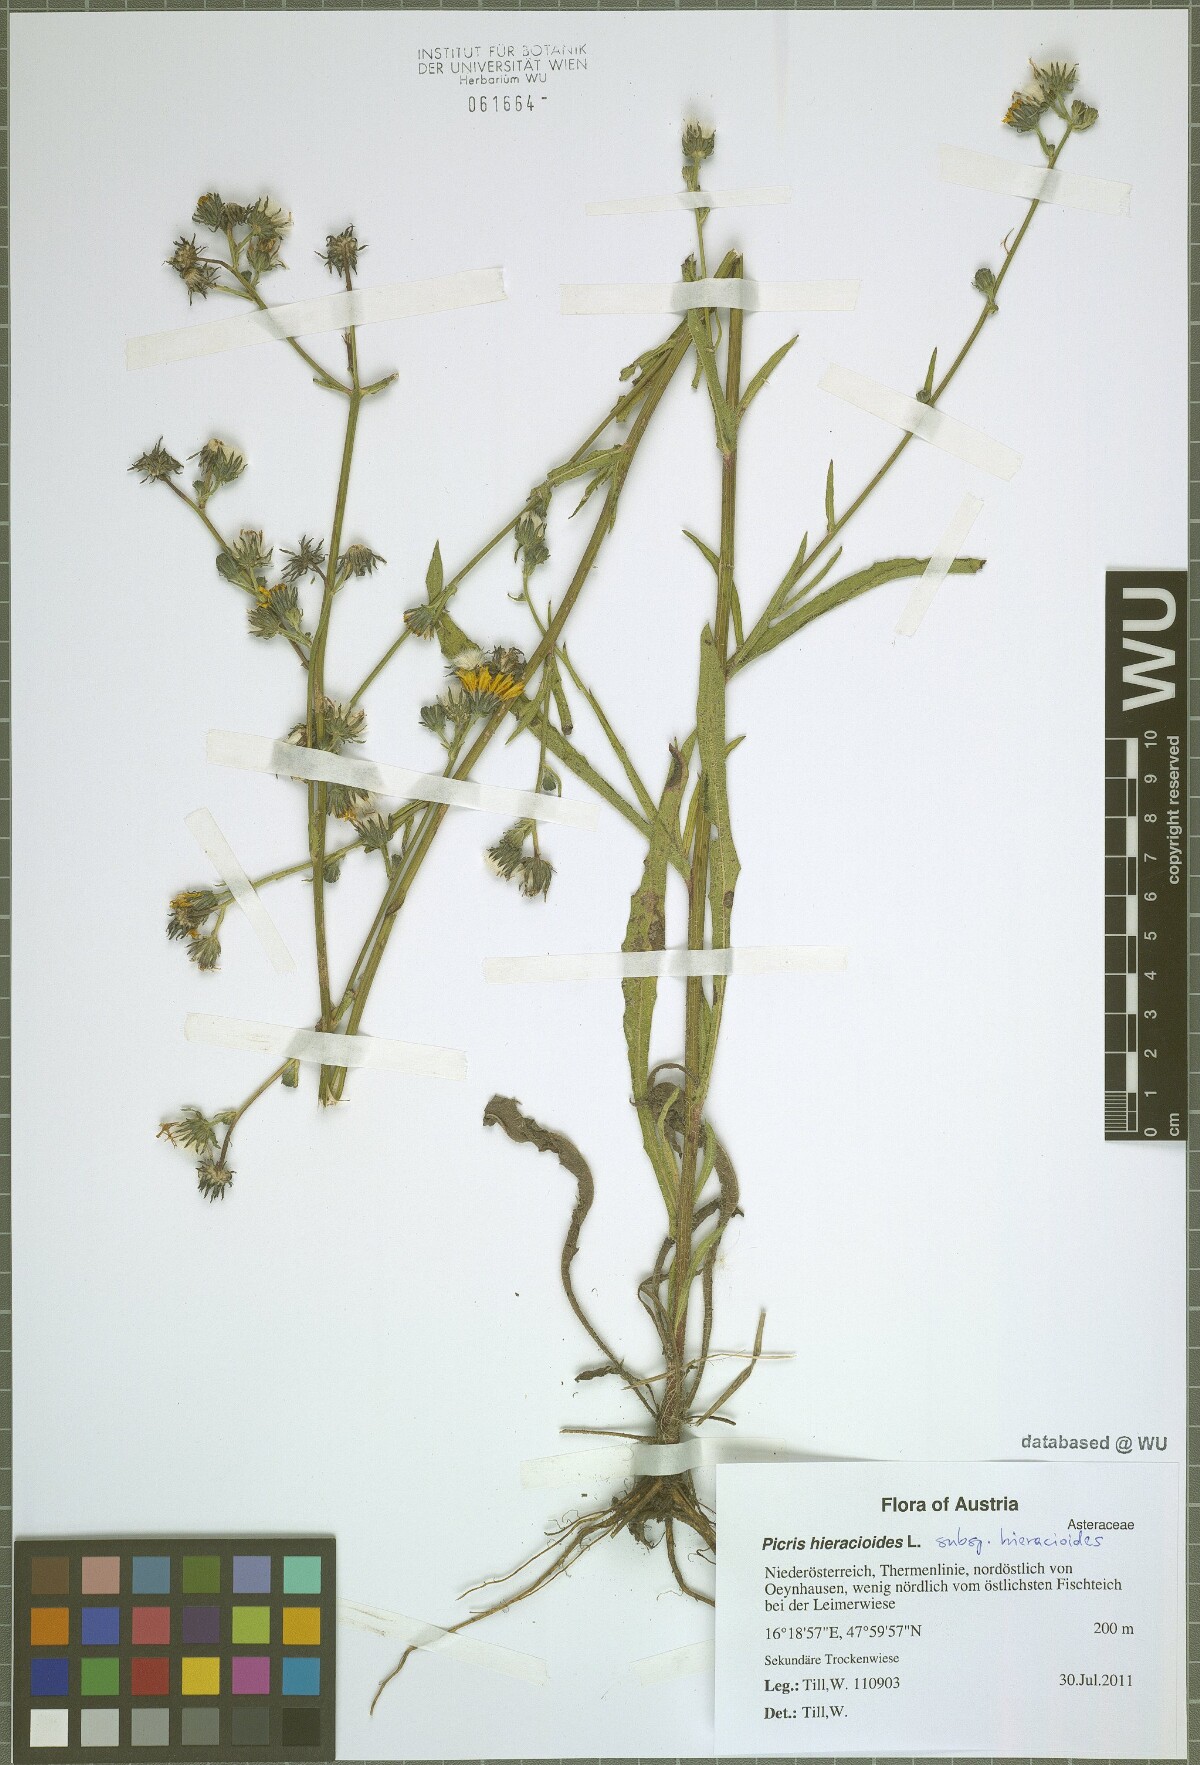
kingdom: Plantae
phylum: Tracheophyta
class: Magnoliopsida
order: Asterales
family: Asteraceae
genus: Picris
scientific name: Picris hieracioides
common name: Hawkweed oxtongue
